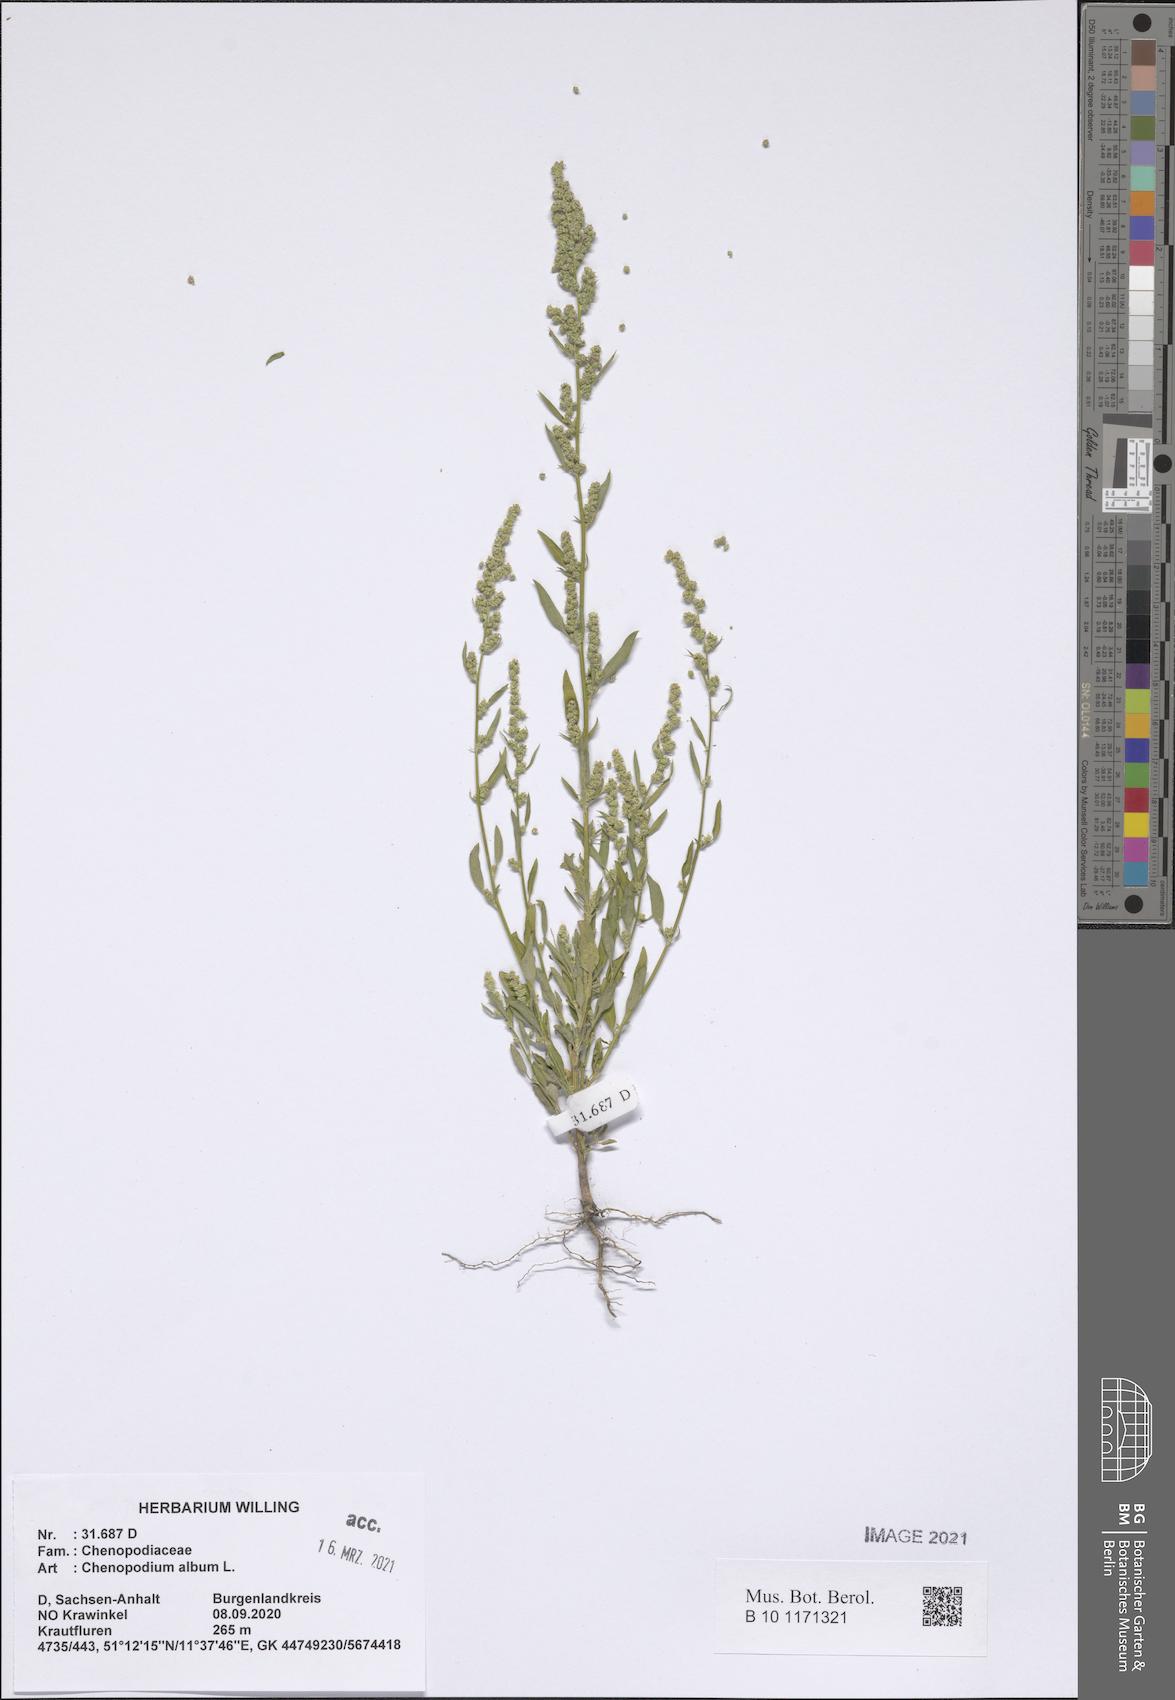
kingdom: Plantae
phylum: Tracheophyta
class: Magnoliopsida
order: Caryophyllales
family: Amaranthaceae
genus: Chenopodium
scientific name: Chenopodium album
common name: Fat-hen
